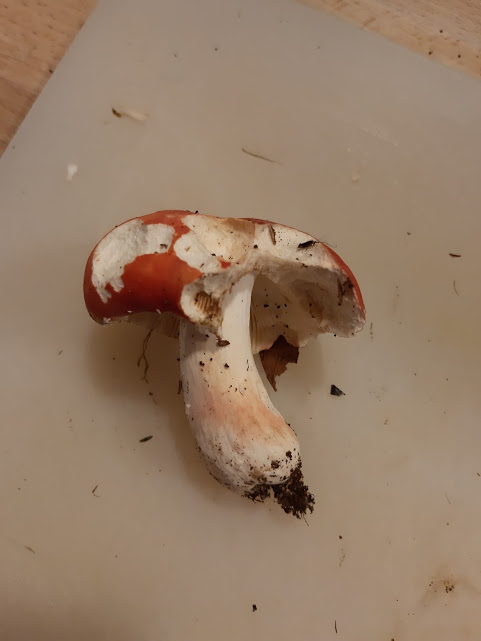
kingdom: Fungi
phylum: Basidiomycota
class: Agaricomycetes
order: Russulales
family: Russulaceae
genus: Russula
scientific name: Russula rosea
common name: fastkødet skørhat
